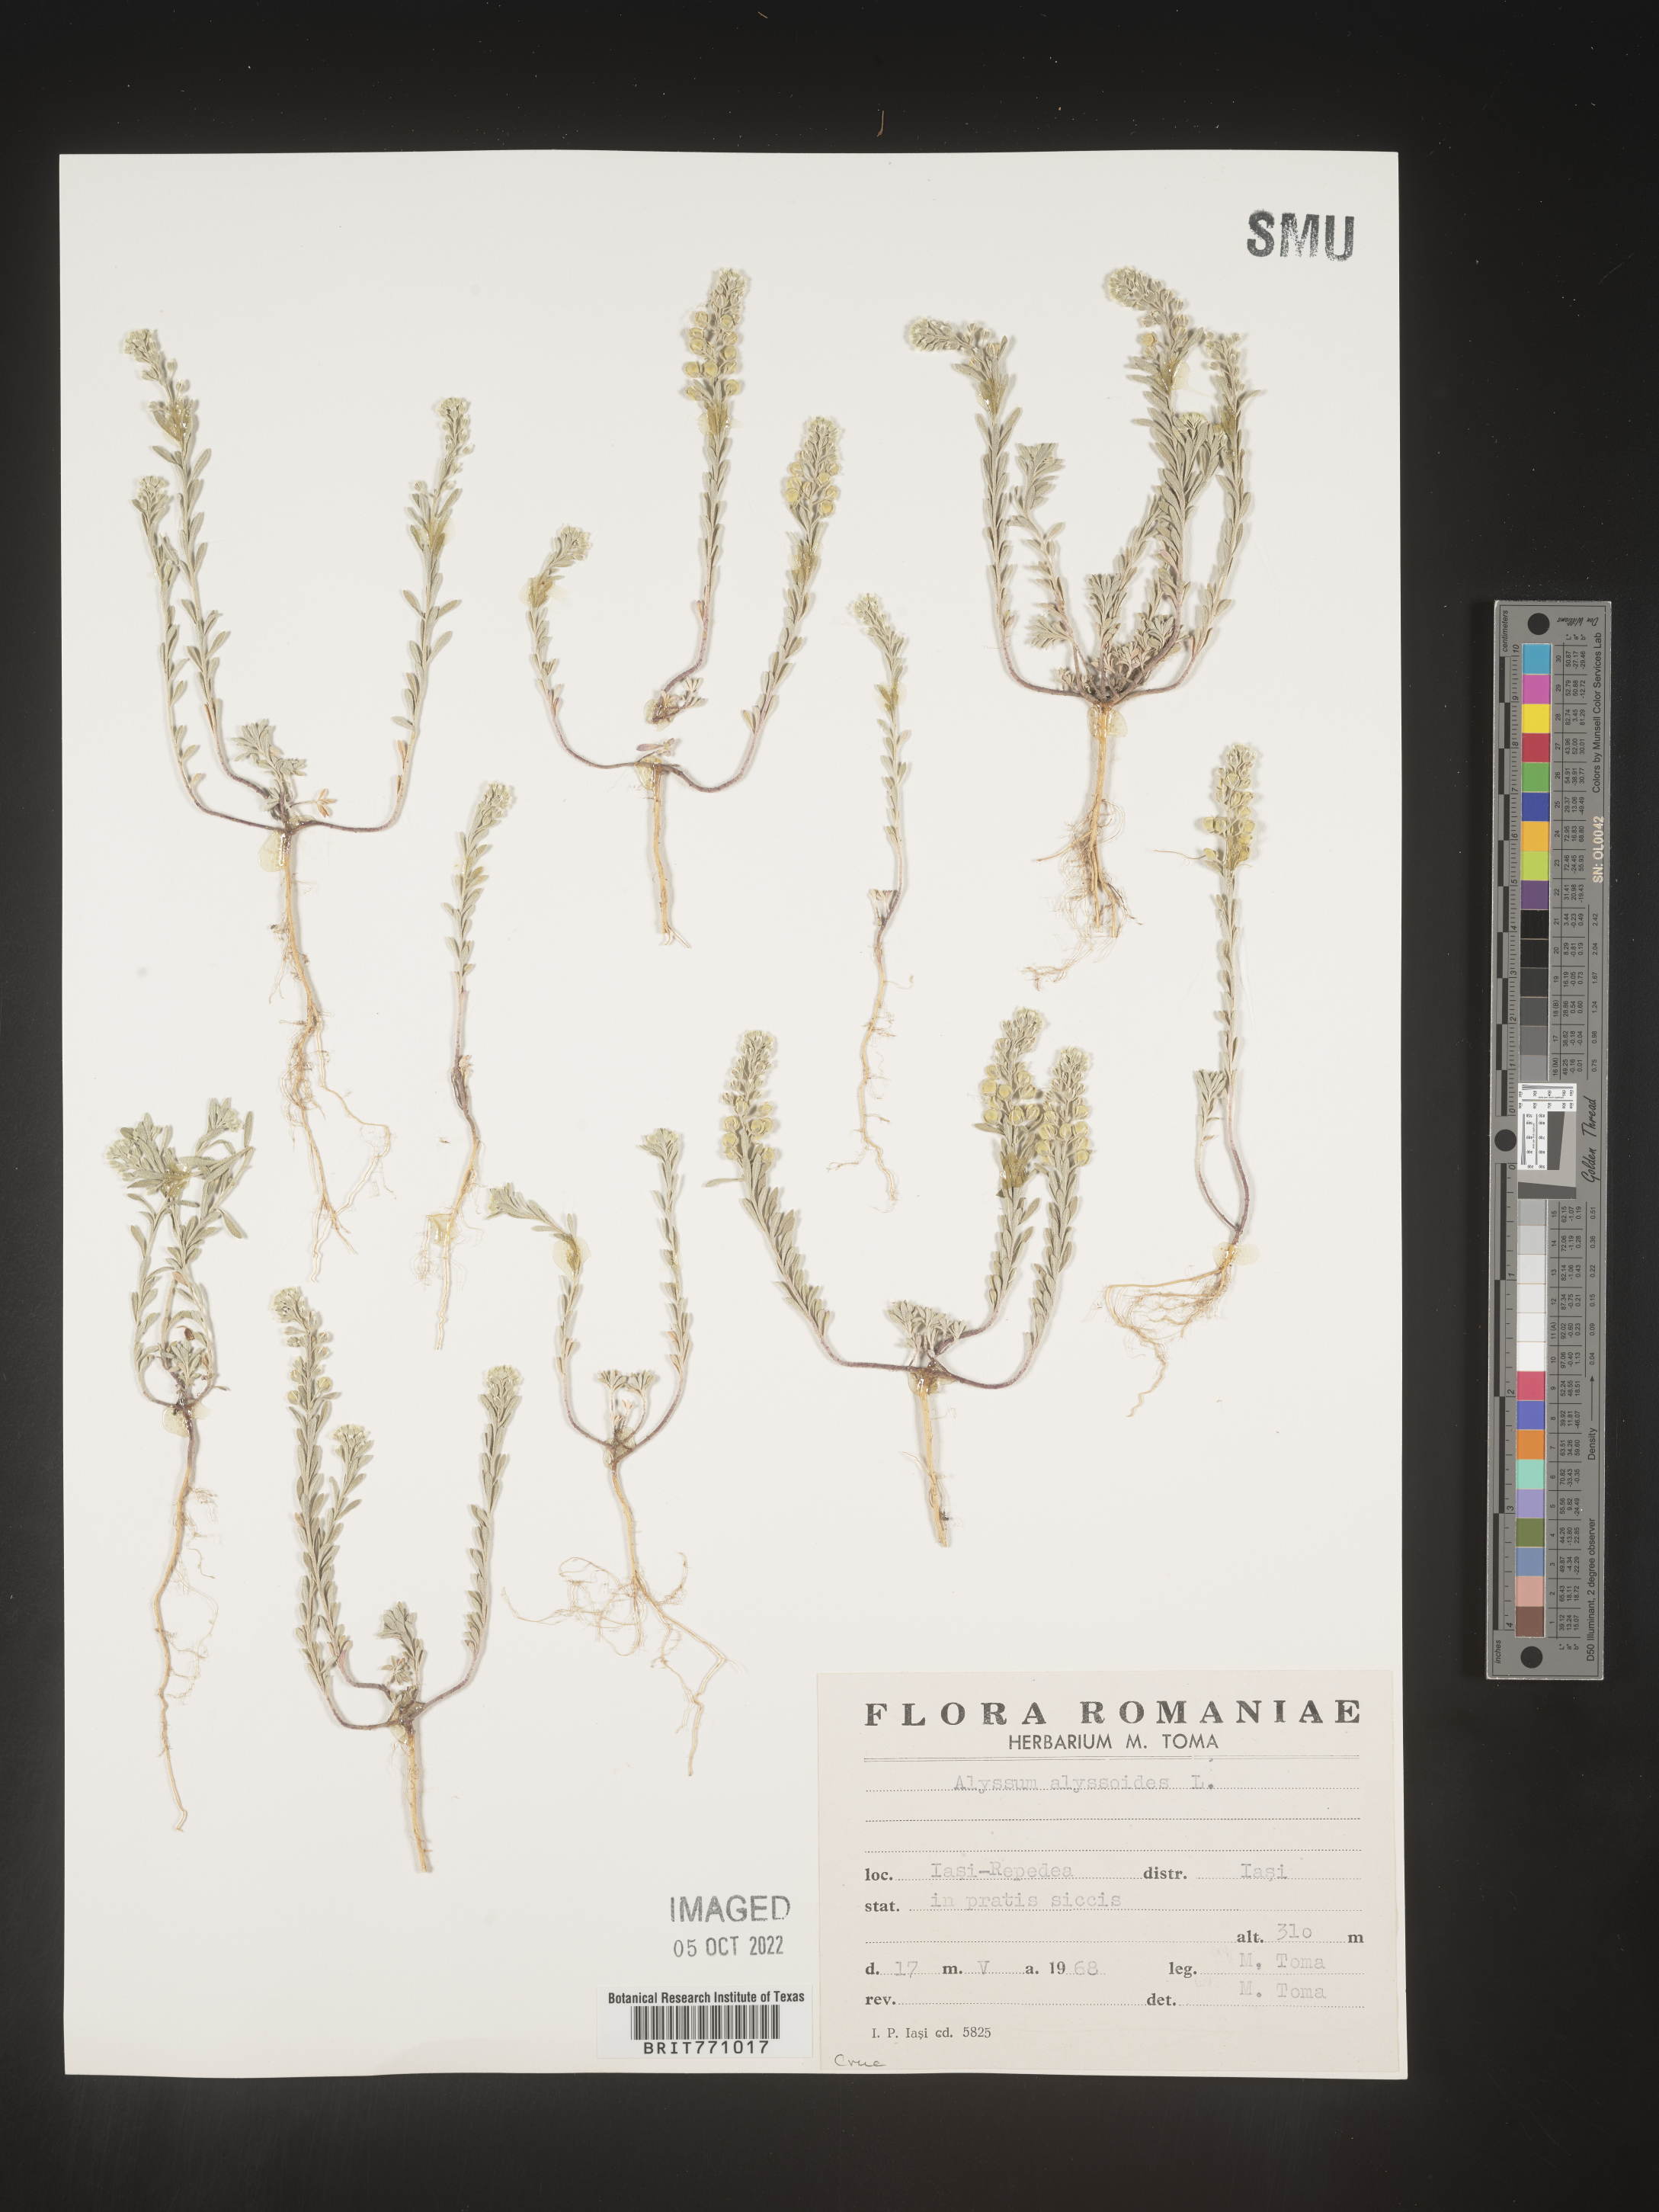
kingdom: Plantae
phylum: Tracheophyta
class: Magnoliopsida
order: Brassicales
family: Brassicaceae
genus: Alyssum
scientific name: Alyssum
